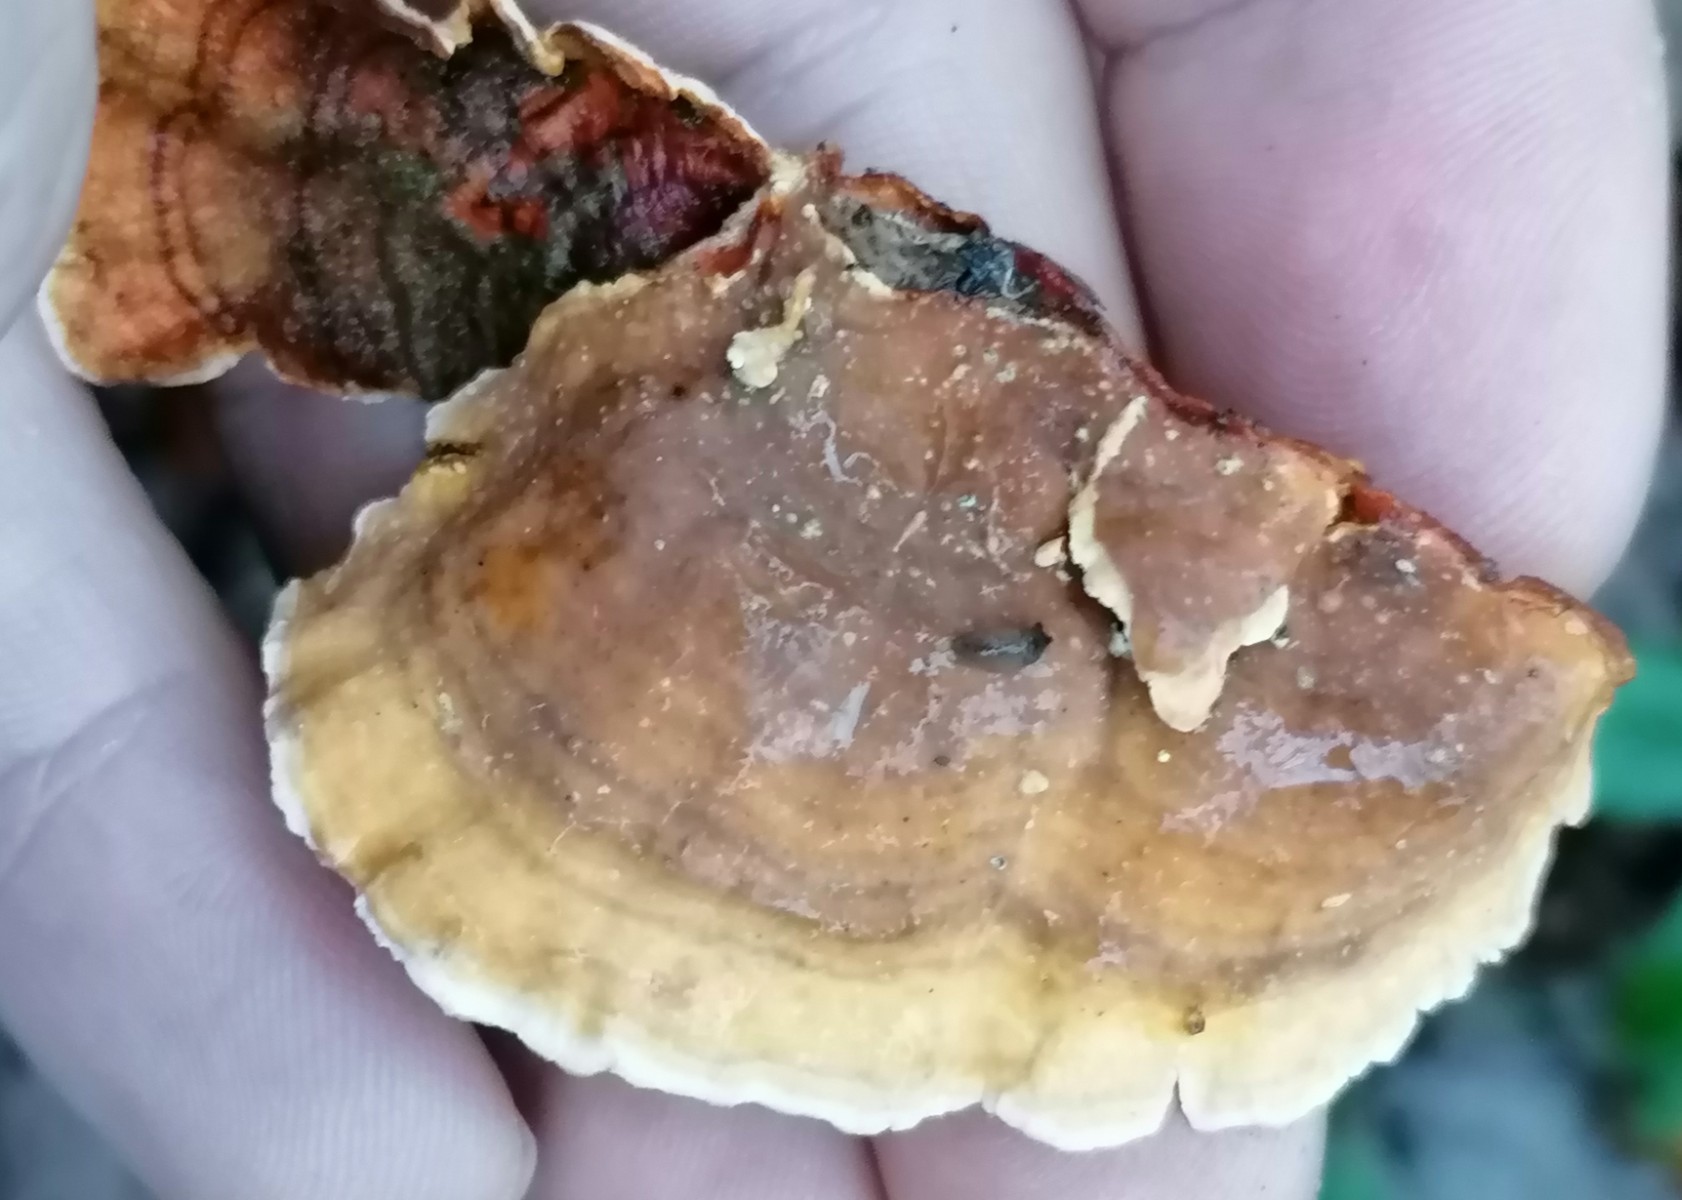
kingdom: Fungi
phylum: Basidiomycota
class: Agaricomycetes
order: Russulales
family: Stereaceae
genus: Stereum
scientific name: Stereum subtomentosum
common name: smuk lædersvamp
